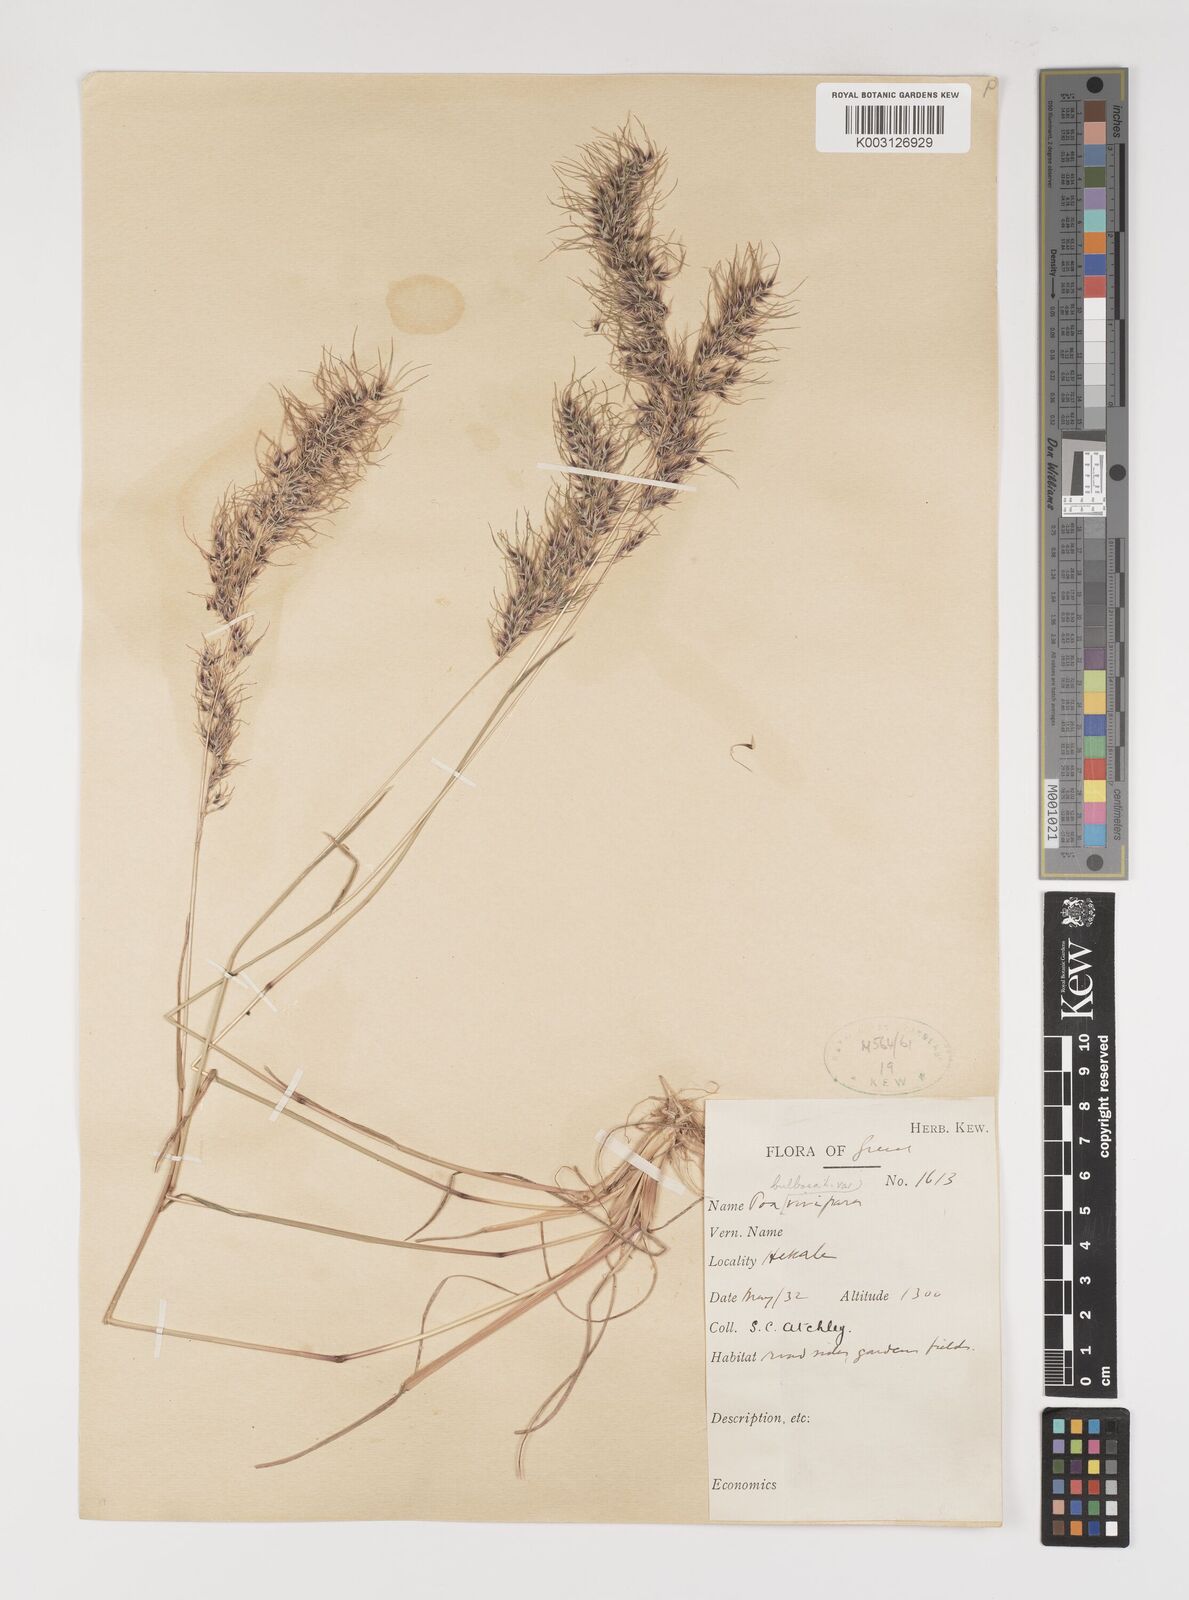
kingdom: Plantae
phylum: Tracheophyta
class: Liliopsida
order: Poales
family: Poaceae
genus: Poa
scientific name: Poa bulbosa
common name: Bulbous bluegrass
